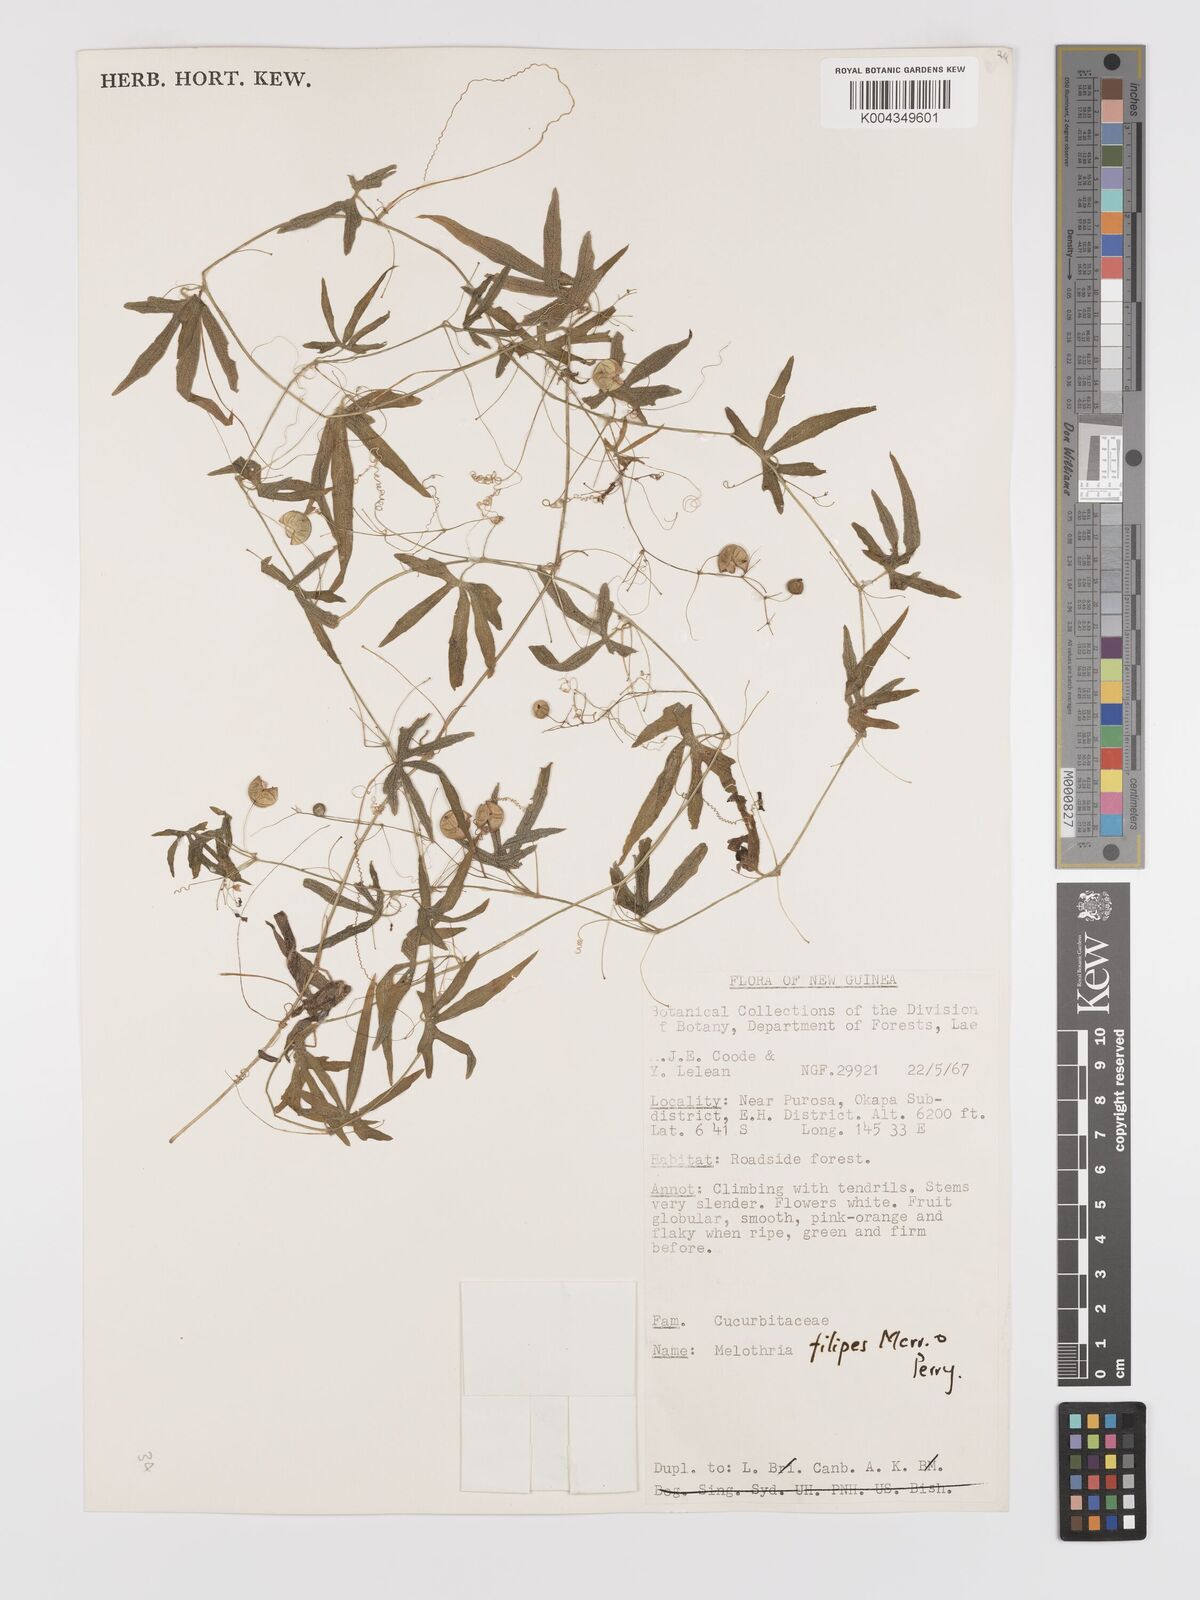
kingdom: Plantae
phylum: Tracheophyta
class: Magnoliopsida
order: Cucurbitales
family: Cucurbitaceae
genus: Zehneria
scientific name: Zehneria filipes
